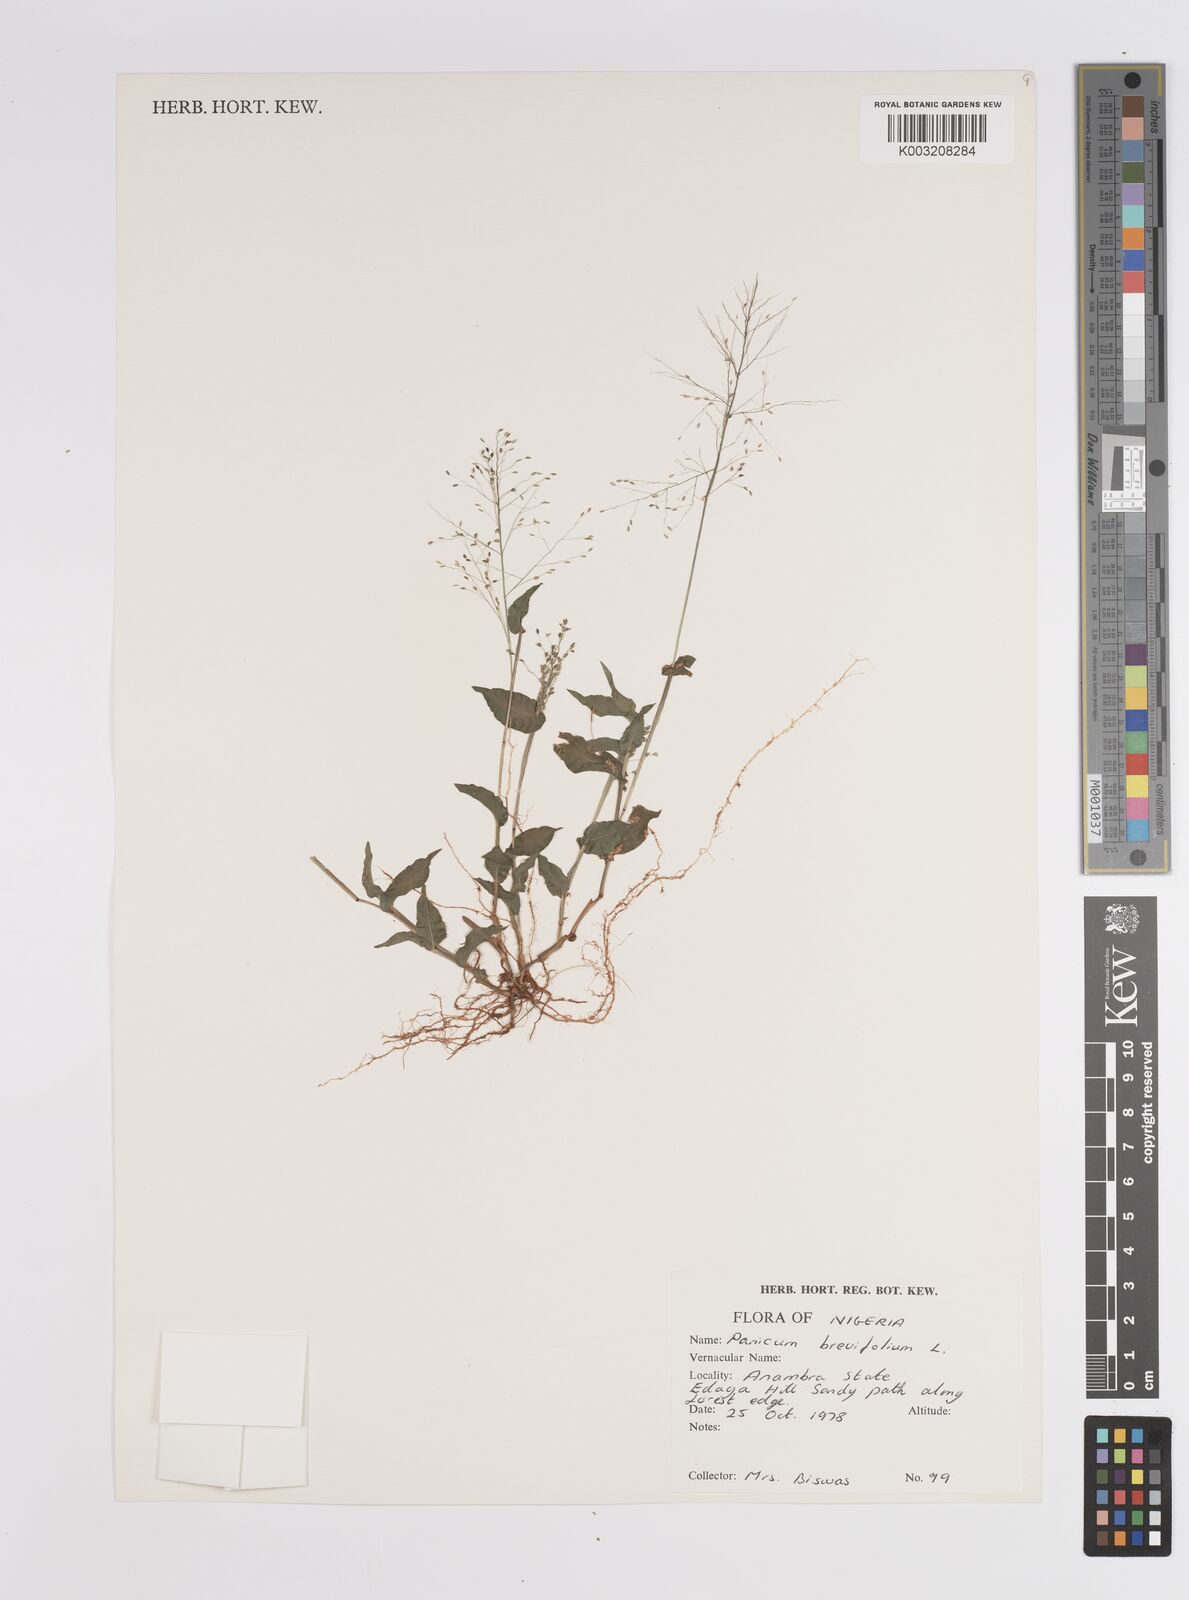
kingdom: Plantae
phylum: Tracheophyta
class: Liliopsida
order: Poales
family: Poaceae
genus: Panicum
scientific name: Panicum brevifolium
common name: Shortleaf panic grass
